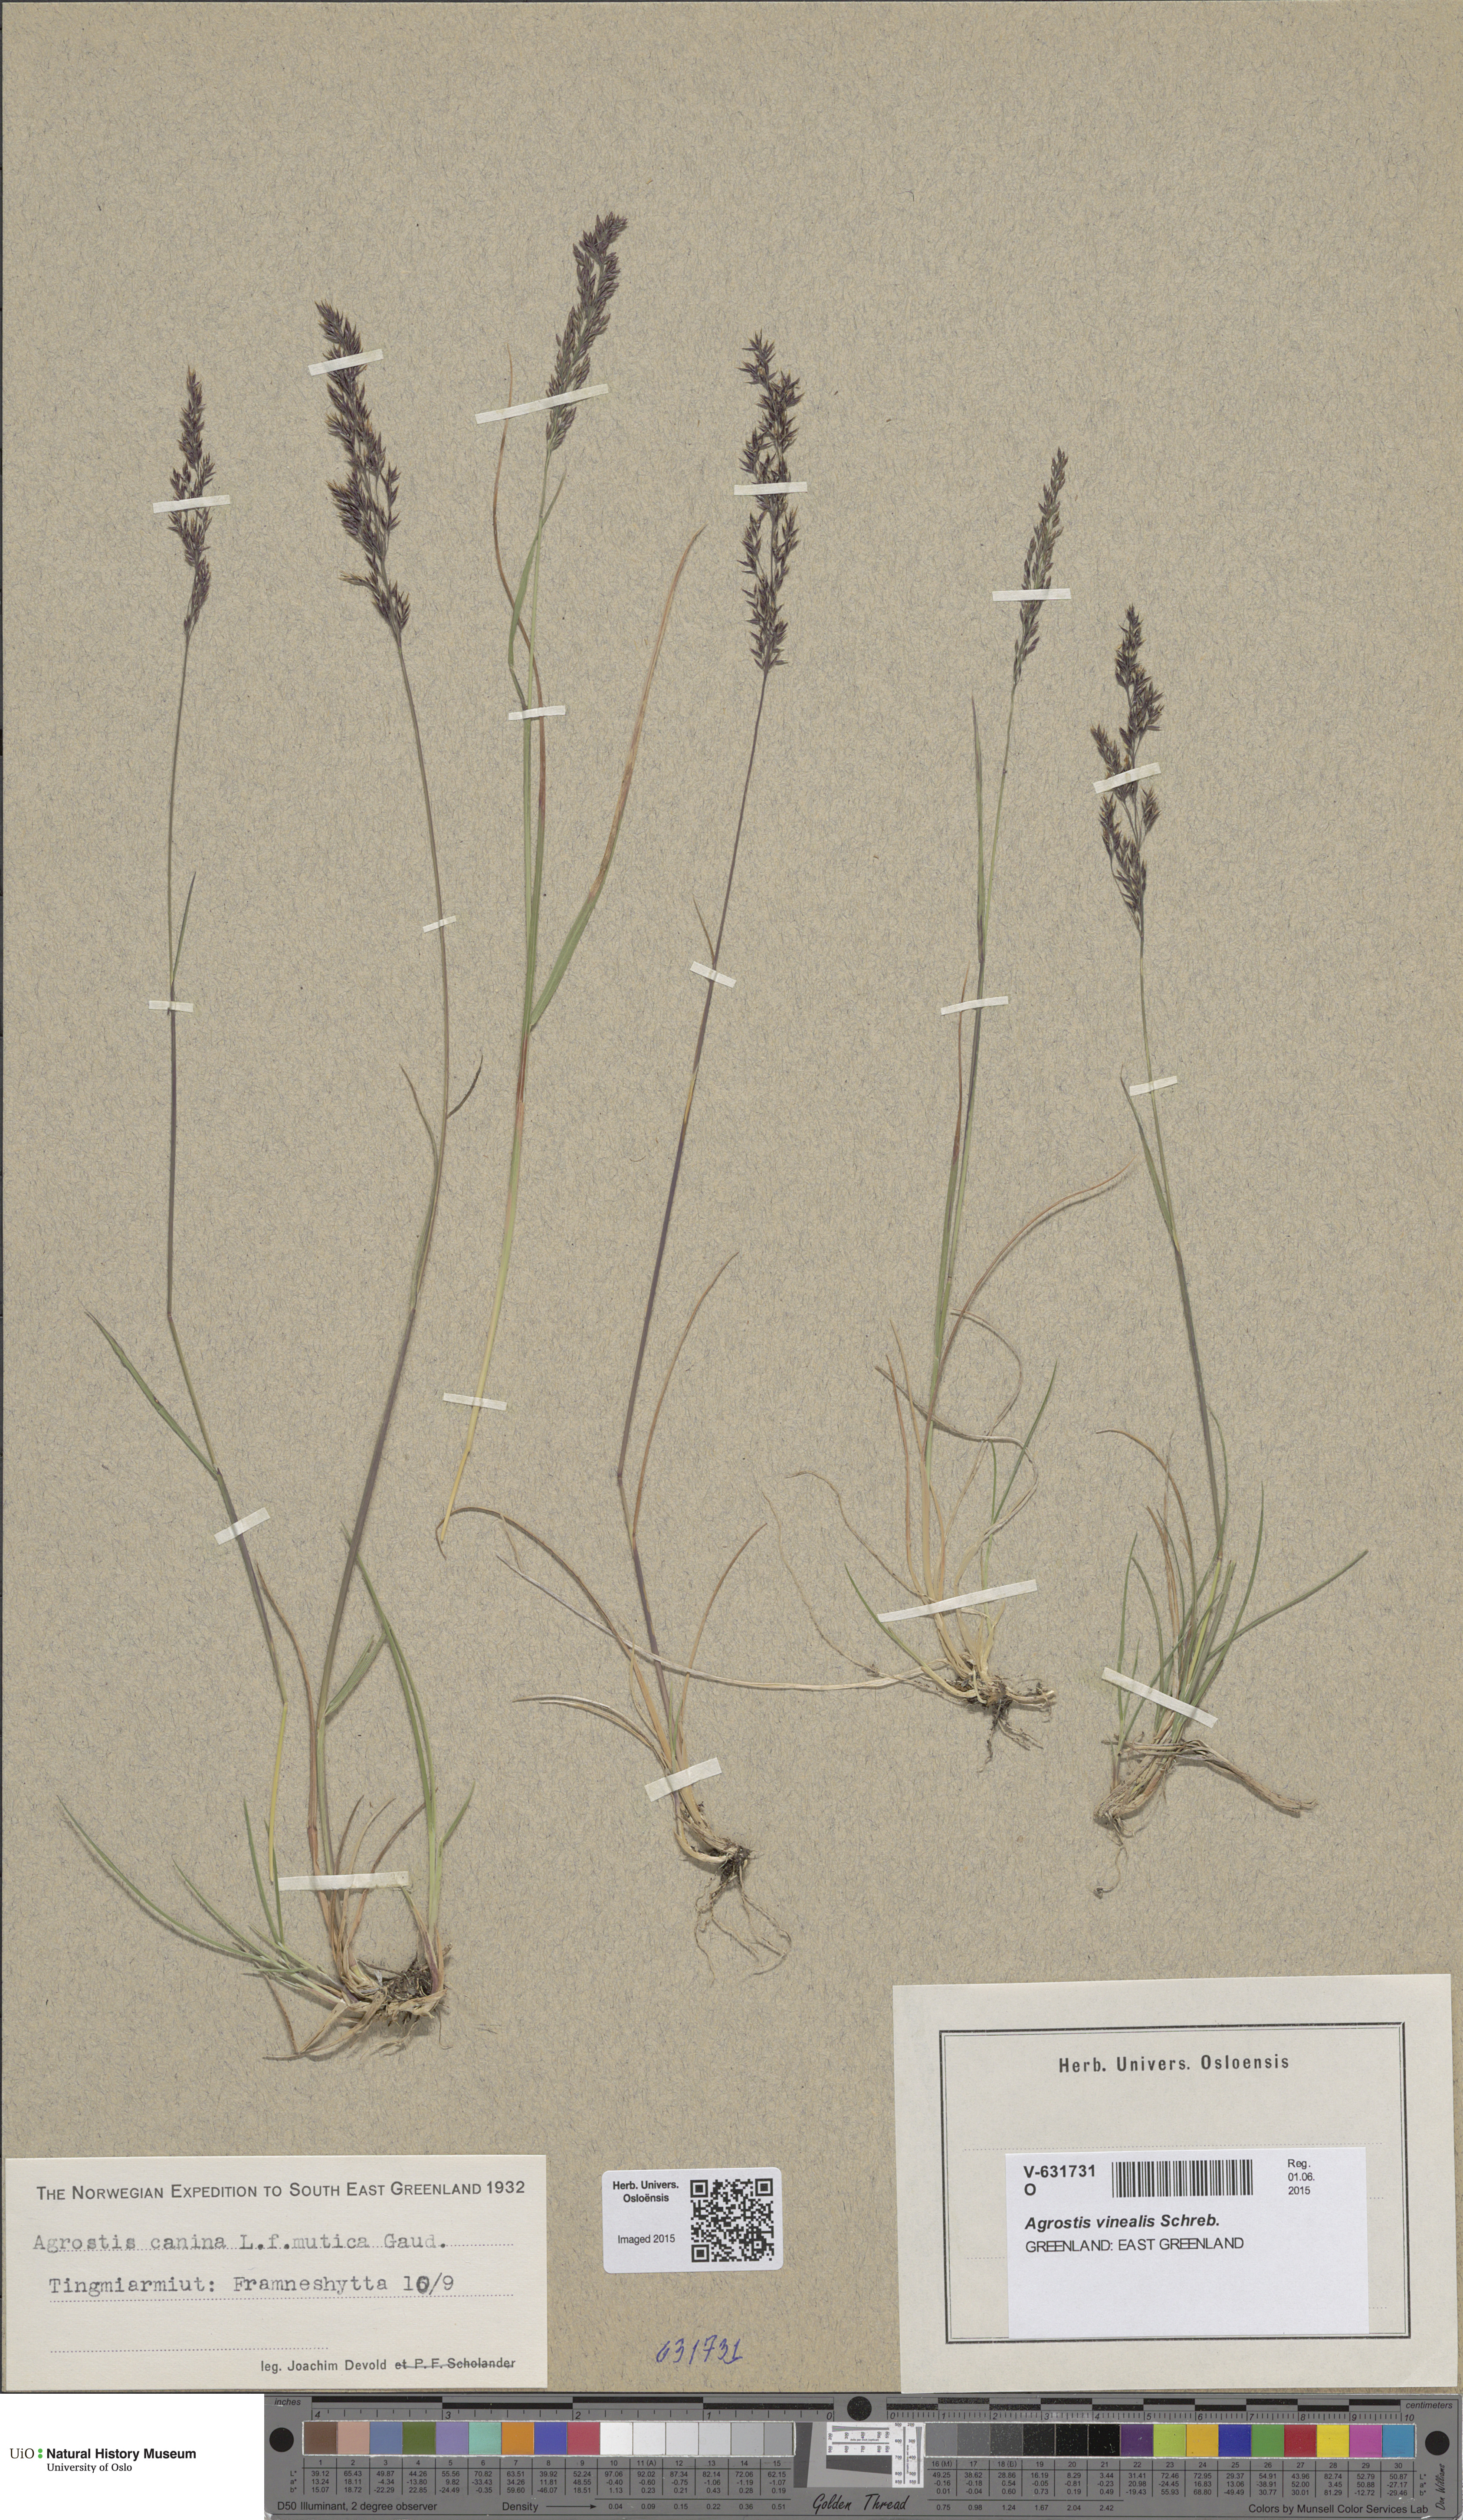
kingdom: Plantae
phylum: Tracheophyta
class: Liliopsida
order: Poales
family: Poaceae
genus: Agrostis
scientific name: Agrostis vinealis
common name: Brown bent
